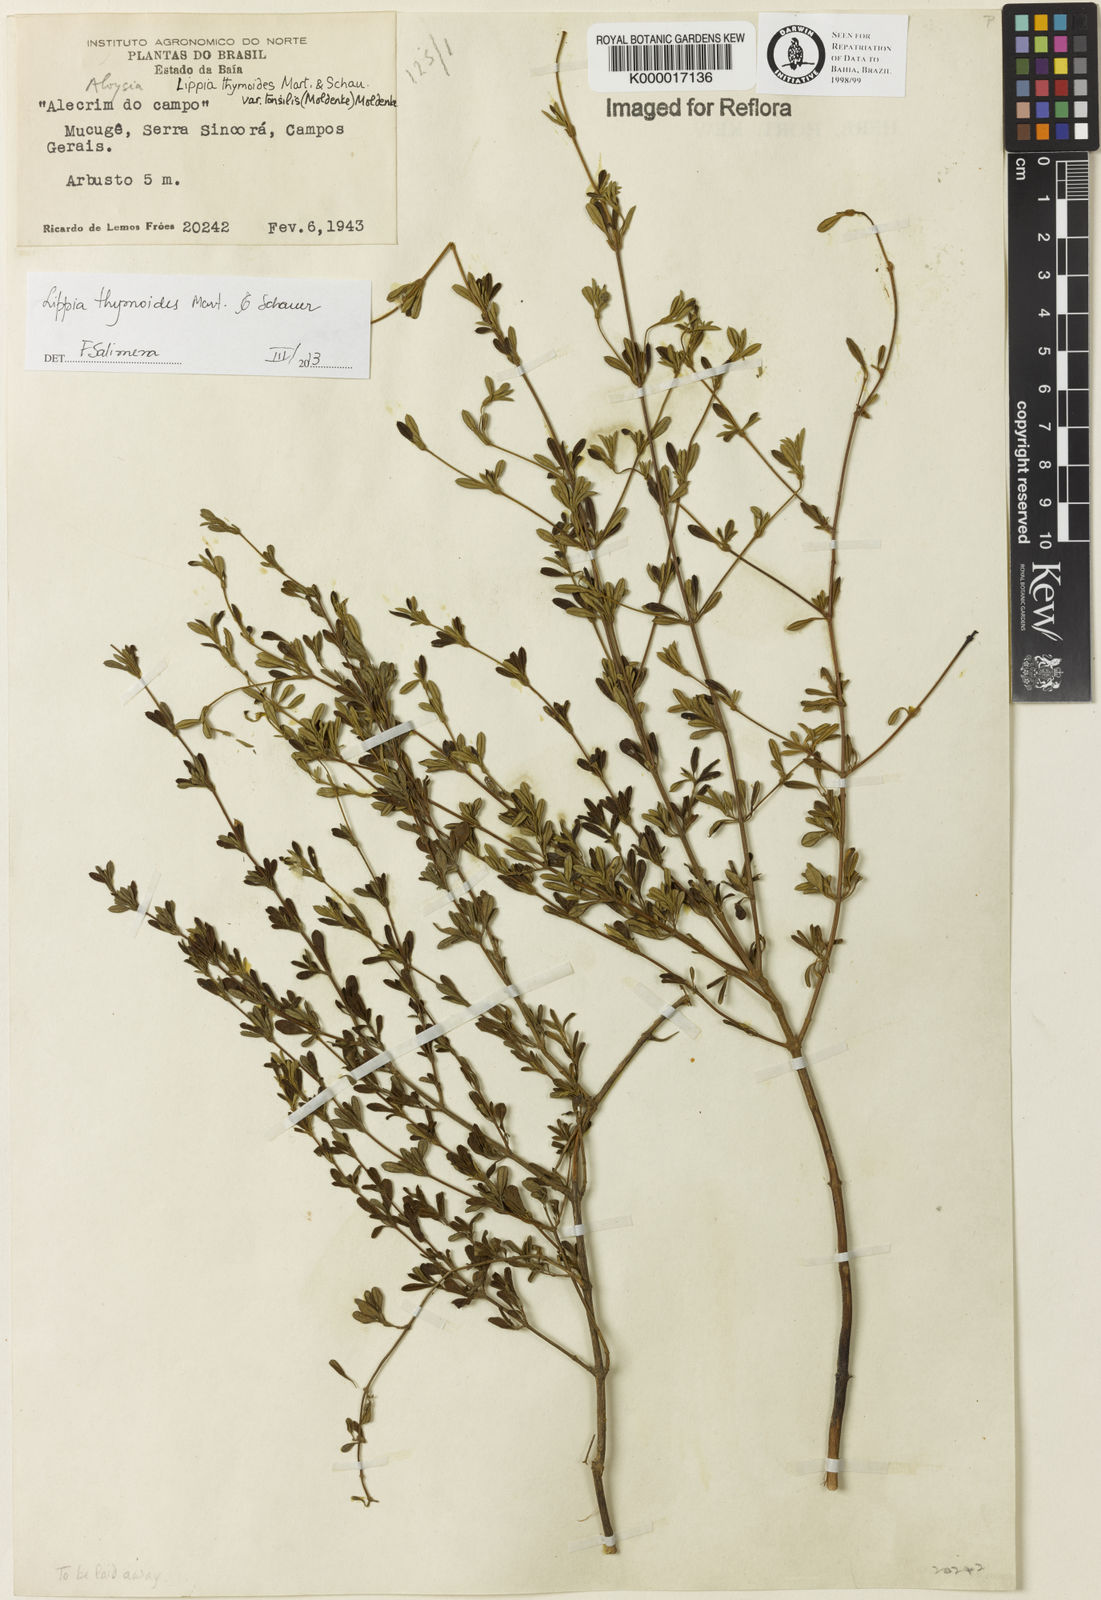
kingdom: Plantae
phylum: Tracheophyta
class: Magnoliopsida
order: Lamiales
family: Verbenaceae
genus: Lippia
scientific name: Lippia thymoides
